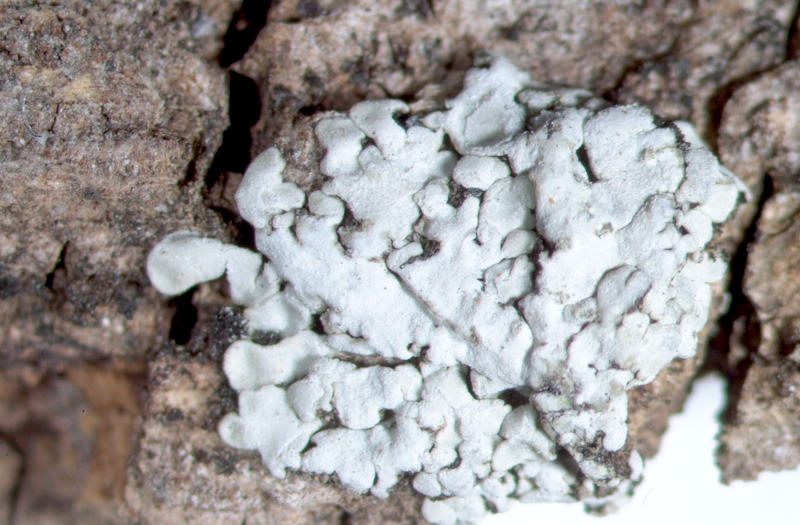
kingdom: Fungi
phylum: Ascomycota
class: Lecanoromycetes
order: Caliciales
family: Caliciaceae
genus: Pyxine
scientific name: Pyxine cocoes
